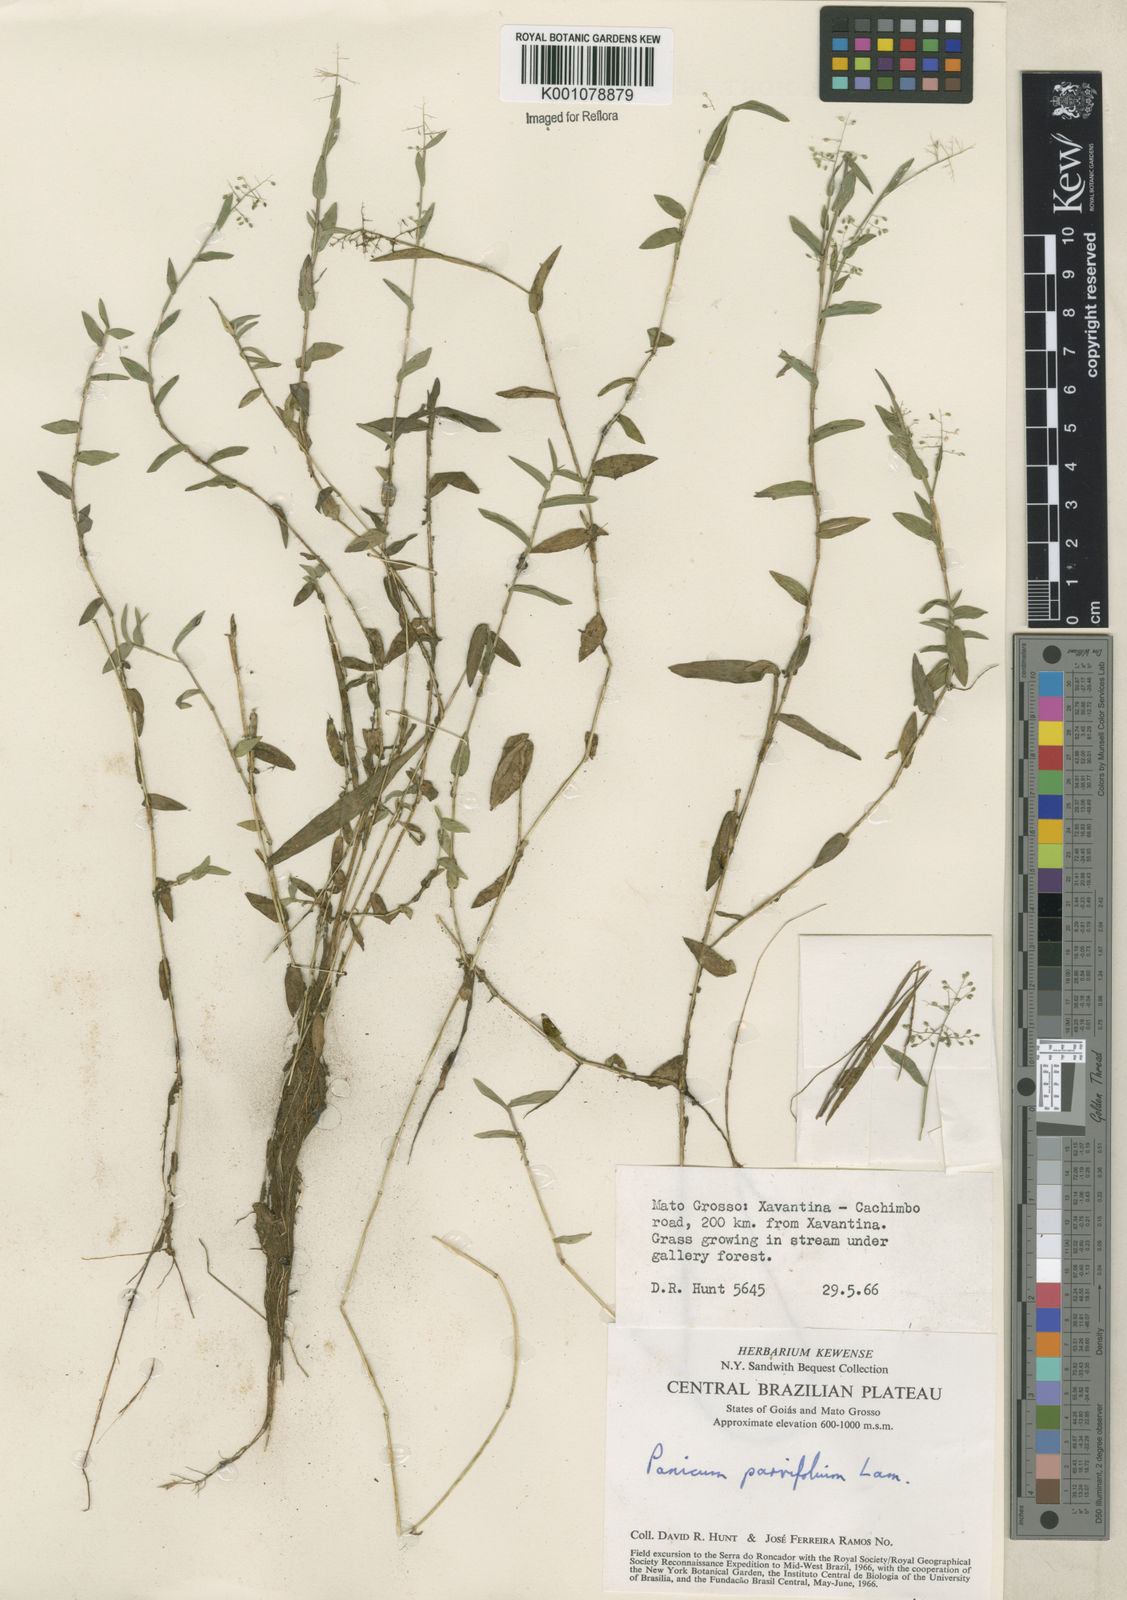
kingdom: Plantae
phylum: Tracheophyta
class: Liliopsida
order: Poales
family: Poaceae
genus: Trichanthecium
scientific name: Trichanthecium parvifolium
